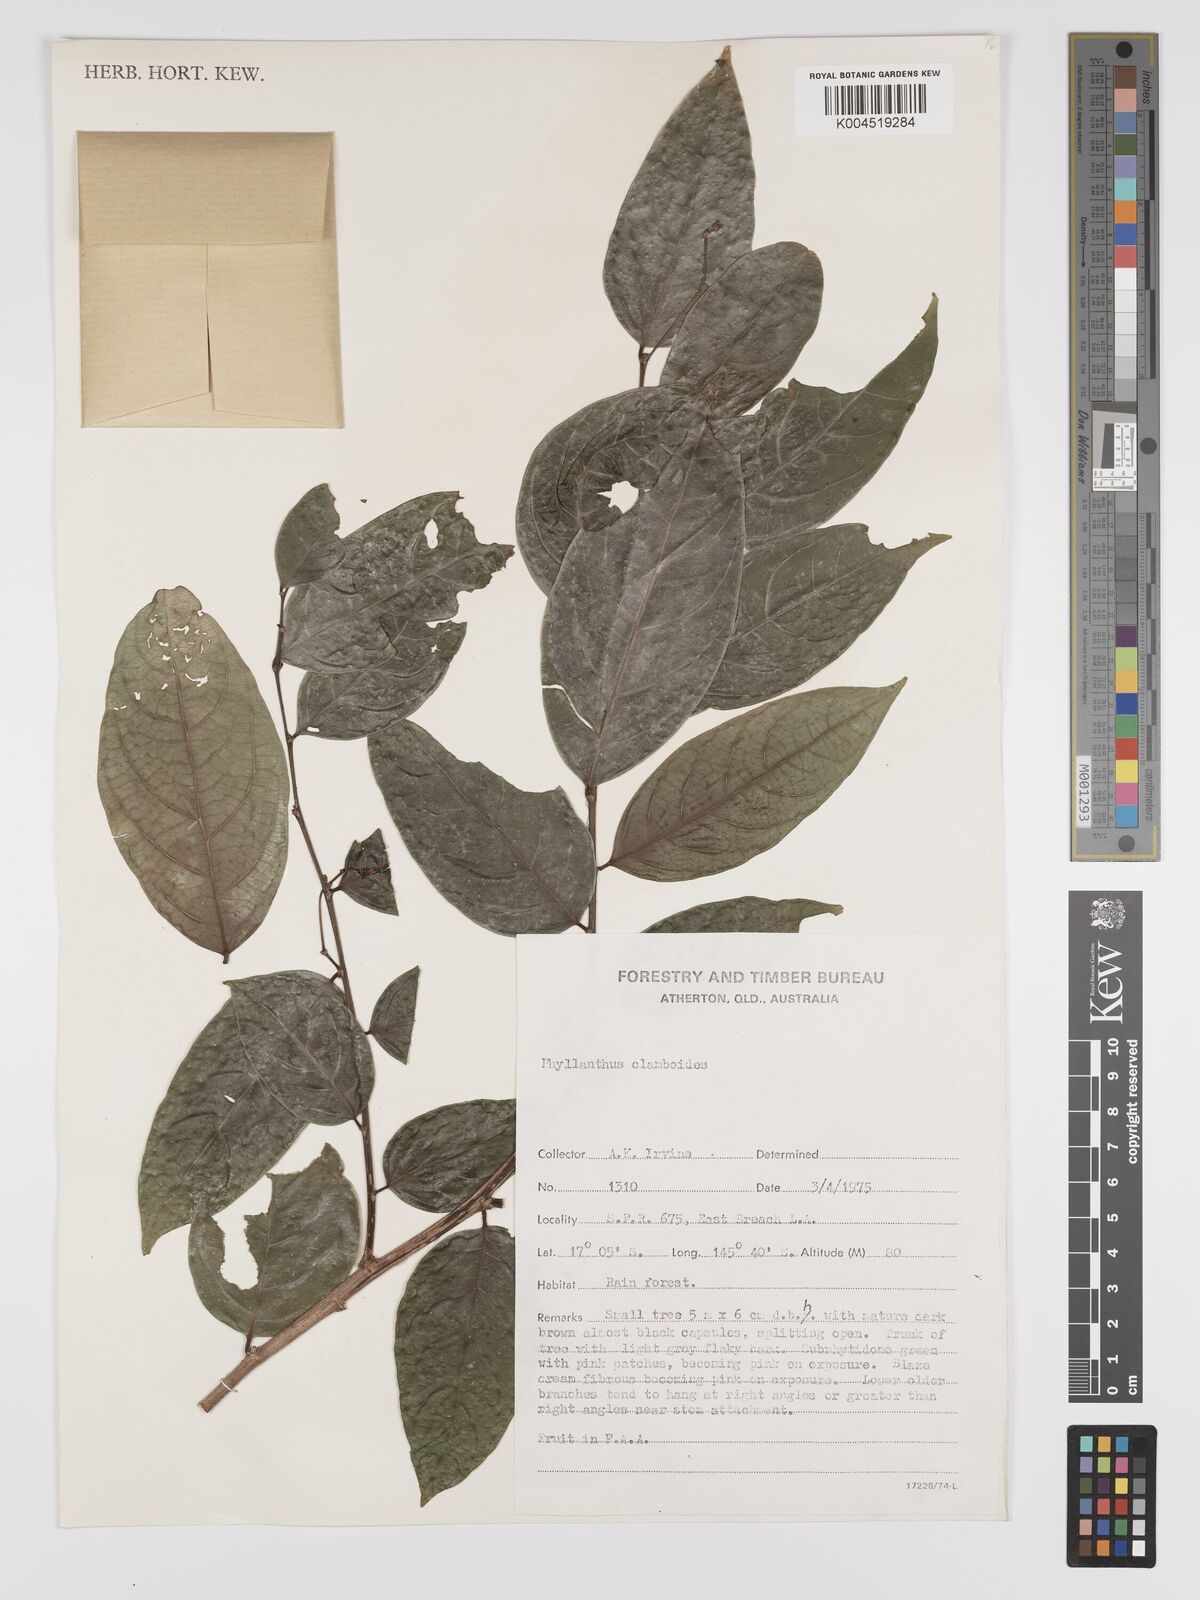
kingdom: Plantae
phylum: Tracheophyta
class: Magnoliopsida
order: Malpighiales
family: Phyllanthaceae
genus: Phyllanthus
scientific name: Phyllanthus clamboides
